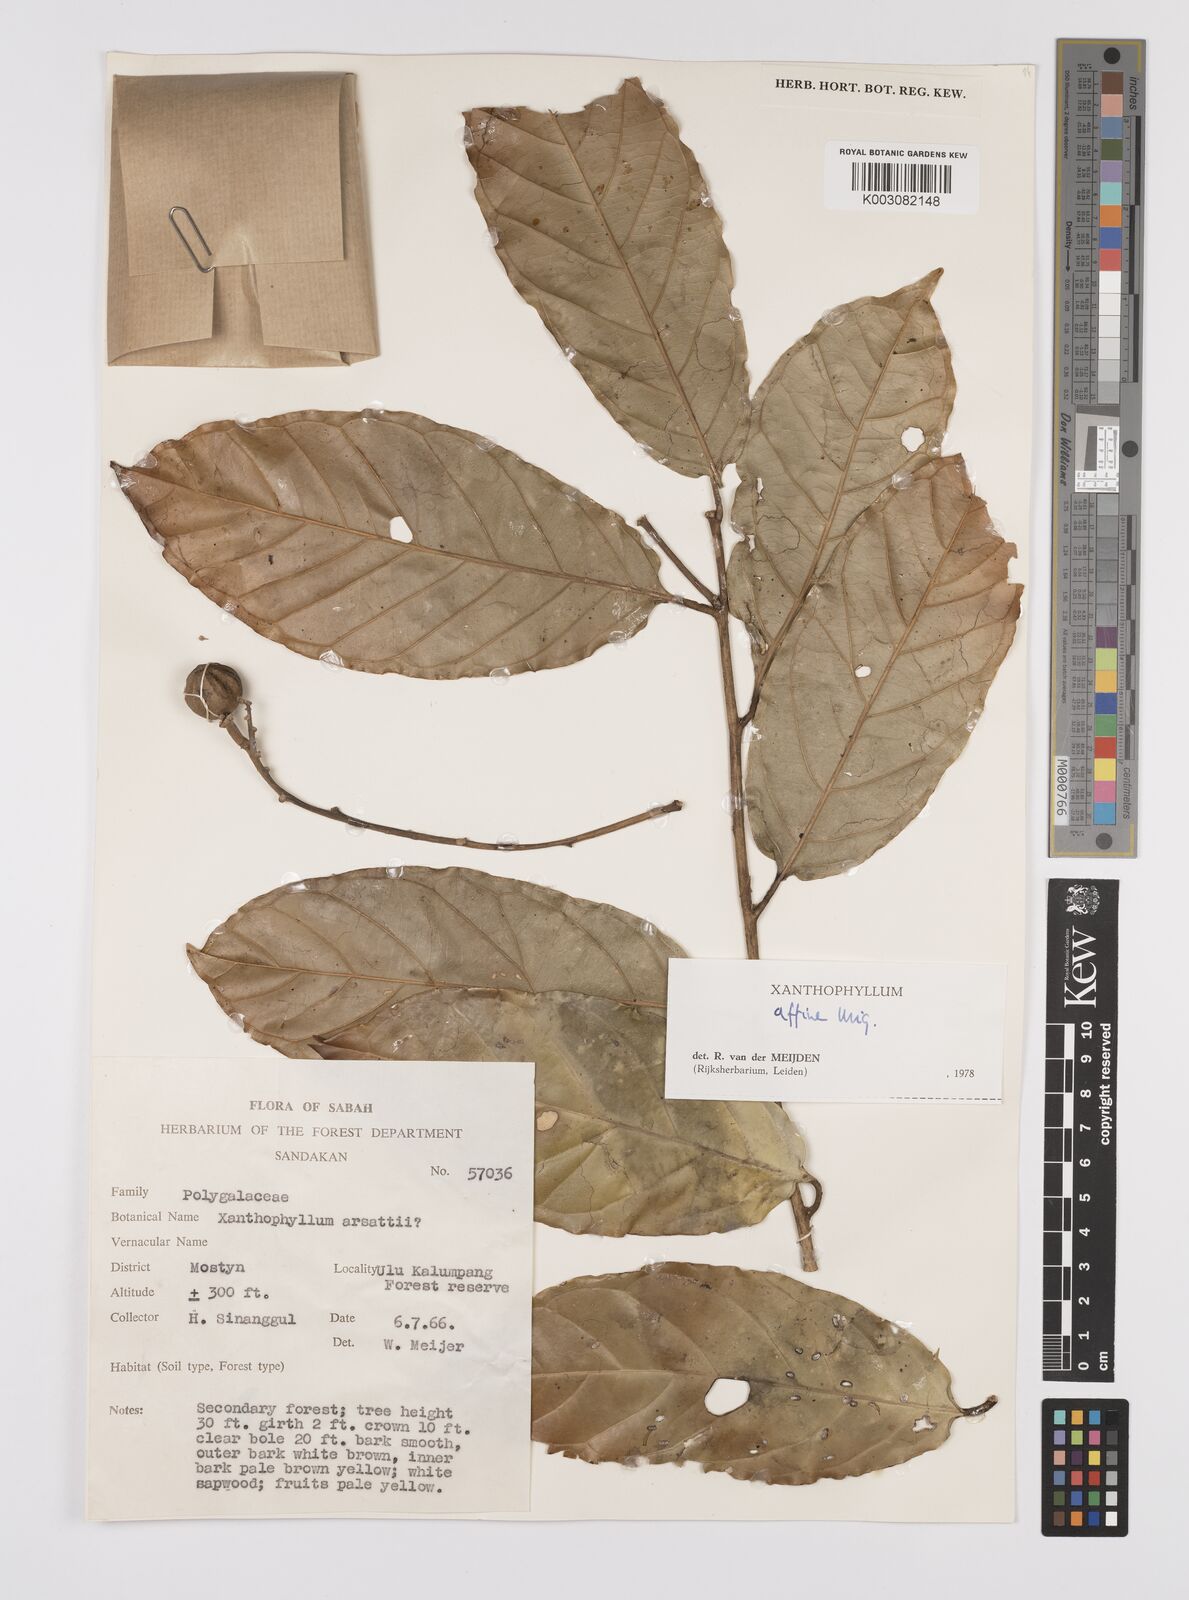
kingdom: Plantae
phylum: Tracheophyta
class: Magnoliopsida
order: Fabales
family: Polygalaceae
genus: Xanthophyllum
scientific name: Xanthophyllum flavescens
